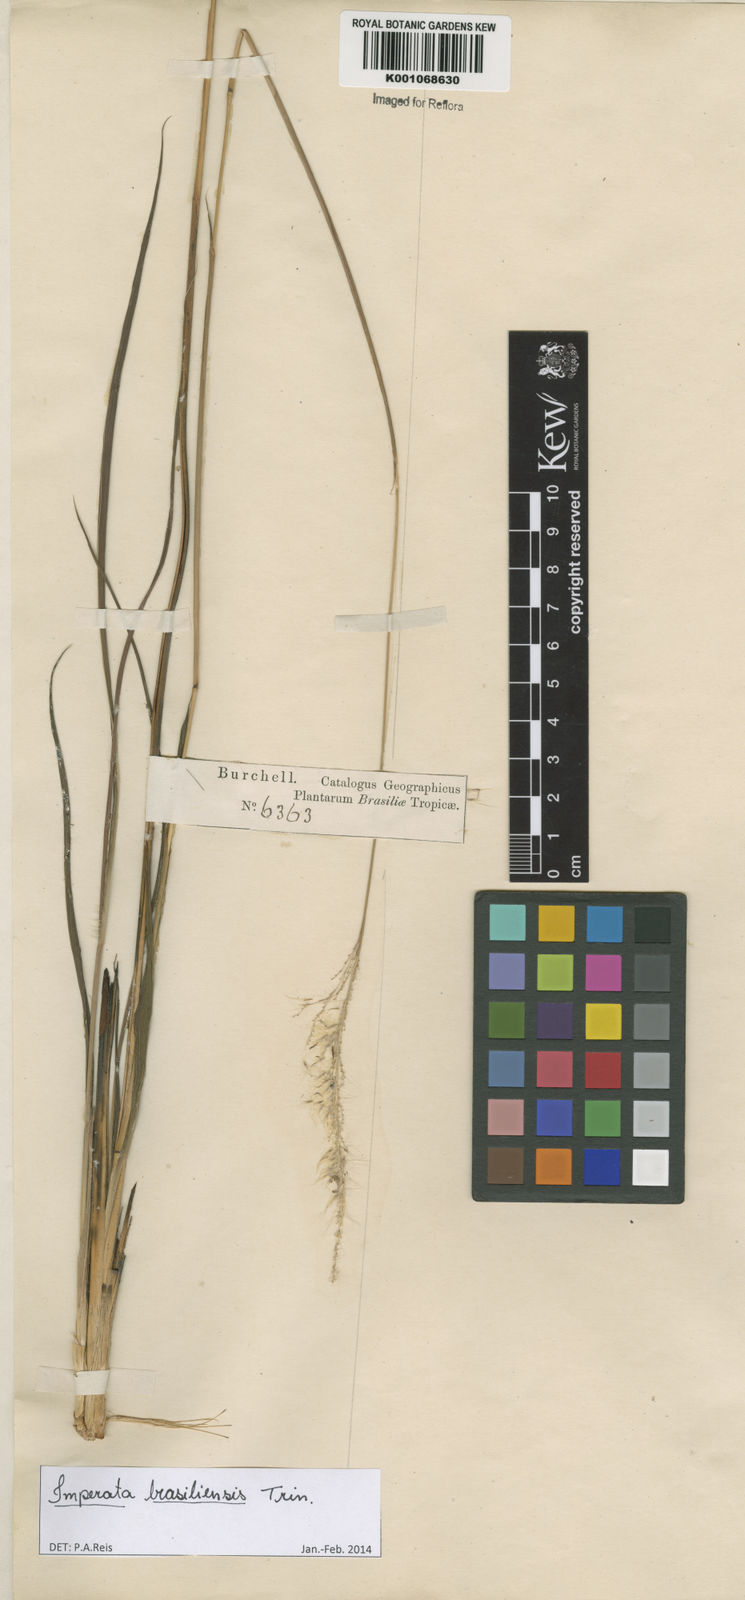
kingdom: Plantae
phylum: Tracheophyta
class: Liliopsida
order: Poales
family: Poaceae
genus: Imperata
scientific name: Imperata brasiliensis
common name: Brazilian satintail
